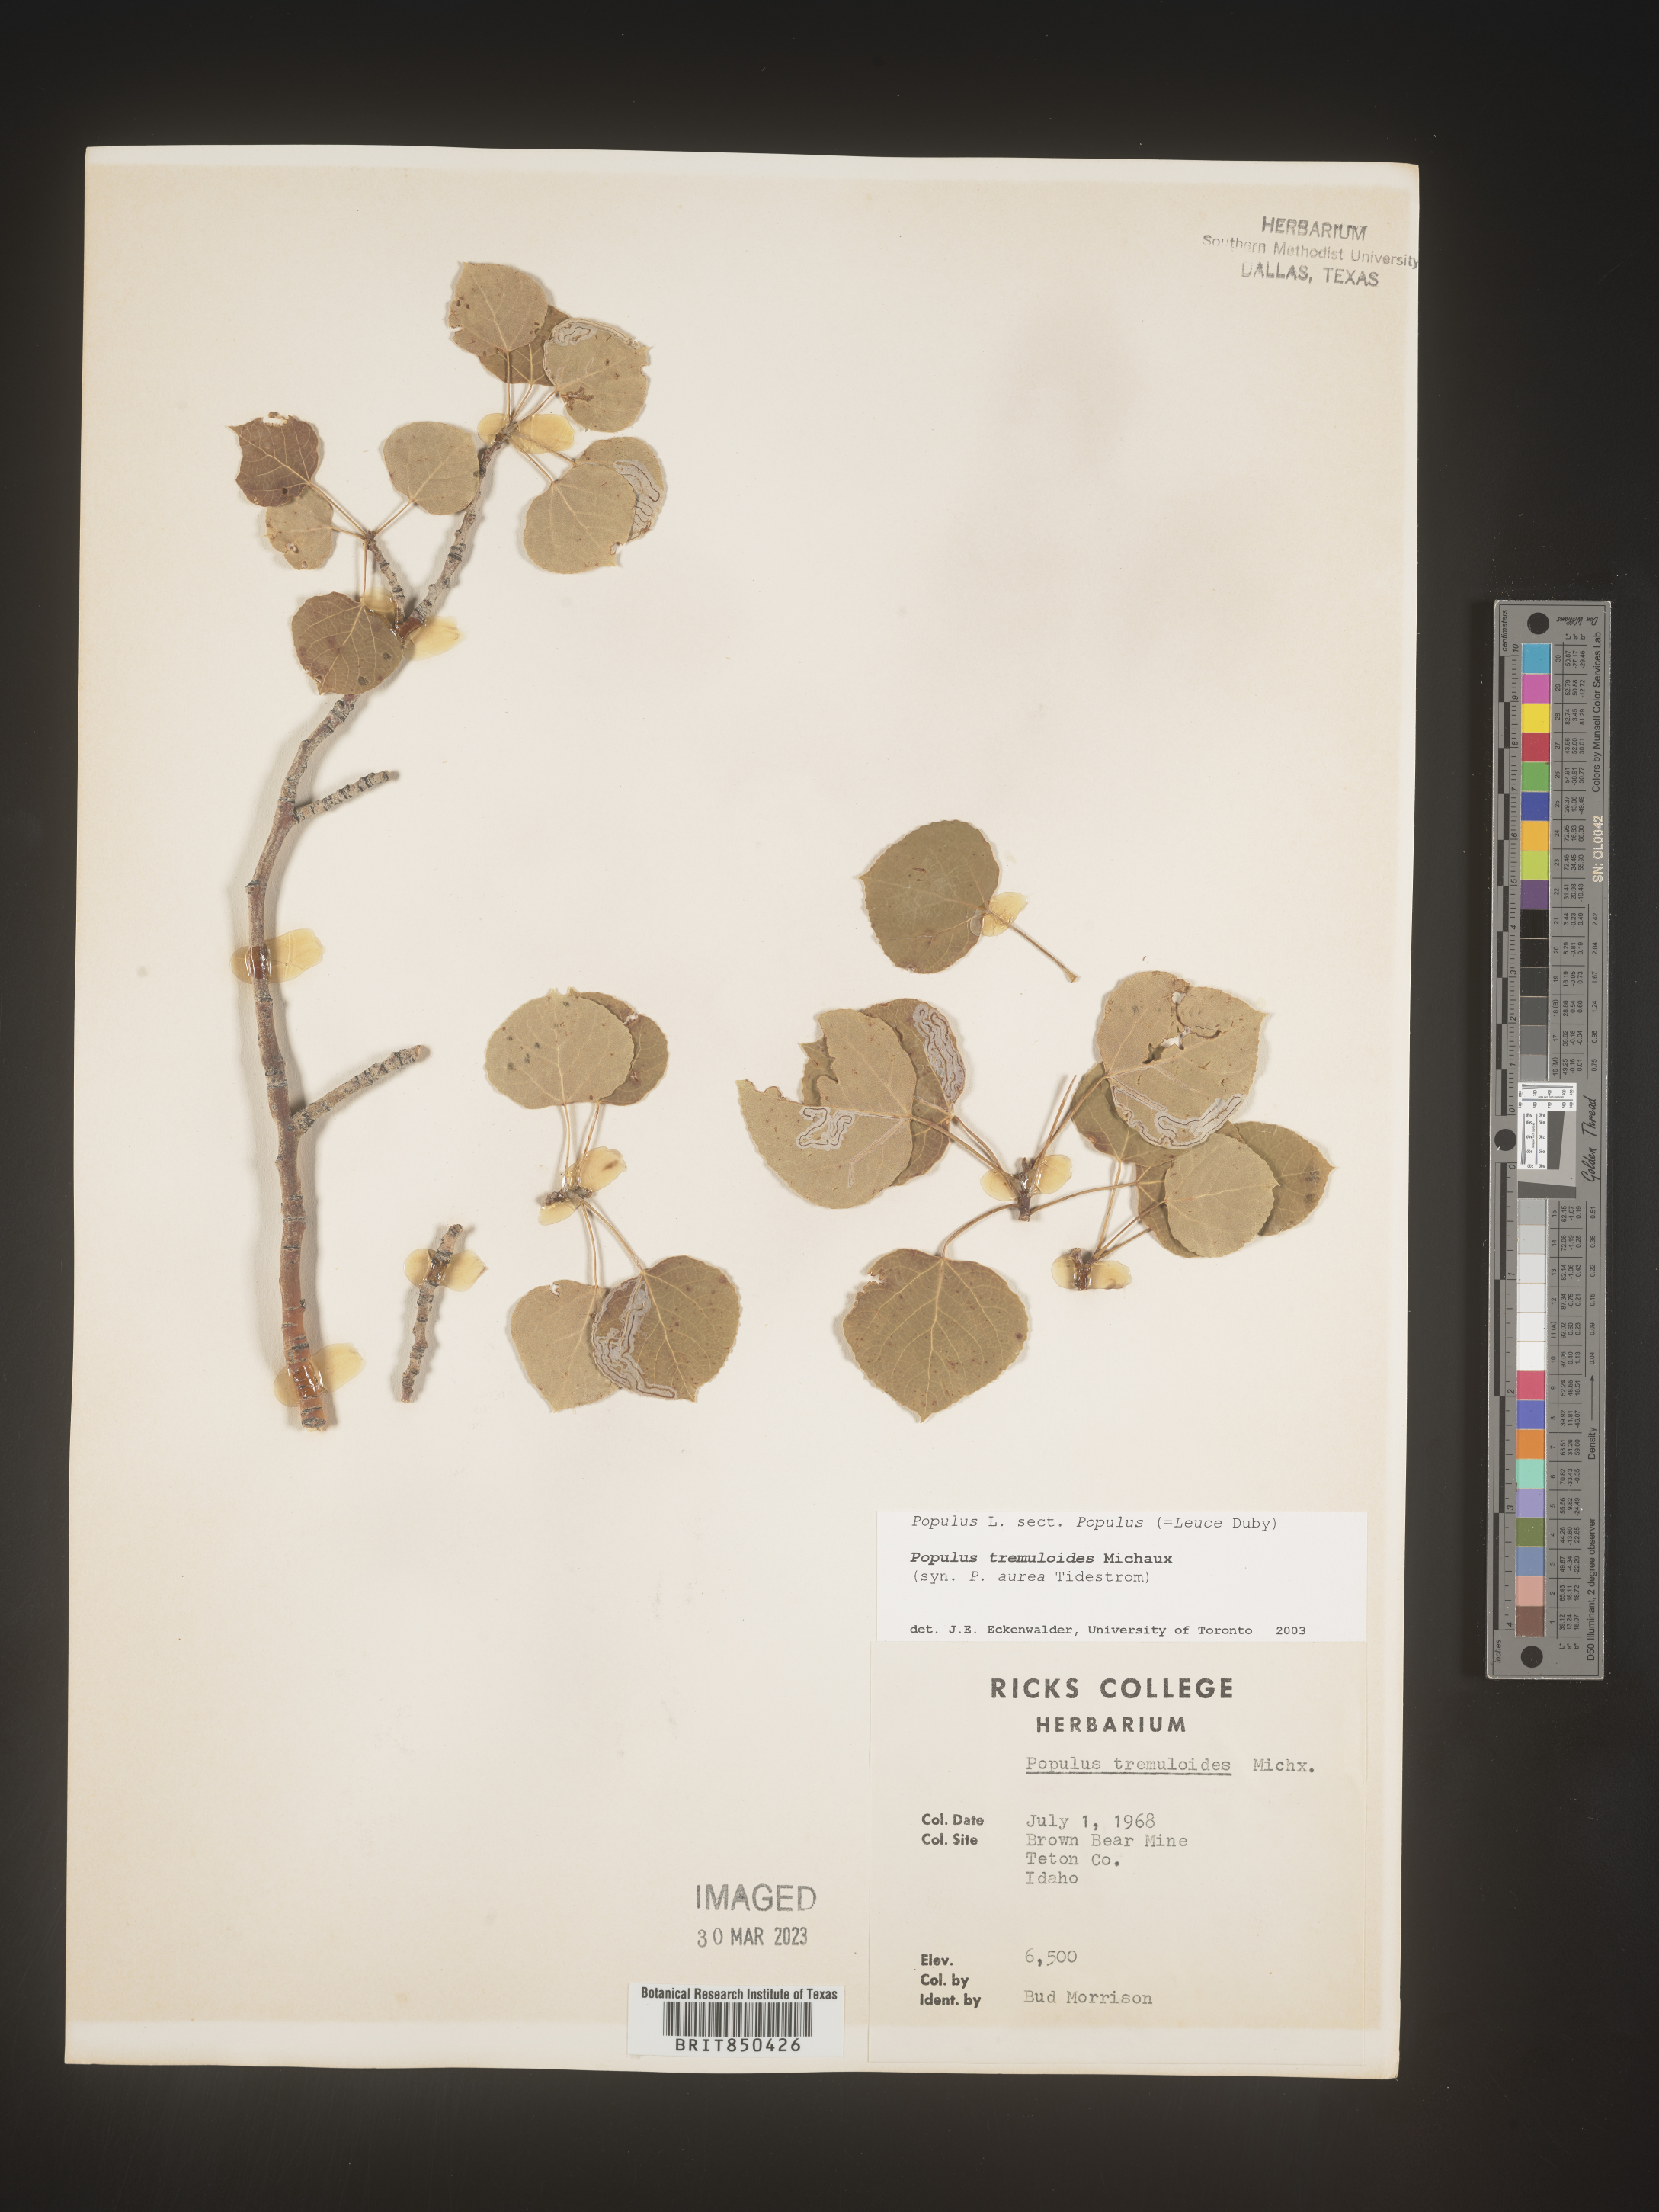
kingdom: Plantae
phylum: Tracheophyta
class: Magnoliopsida
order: Malpighiales
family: Salicaceae
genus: Populus
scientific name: Populus tremuloides
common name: Quaking aspen
